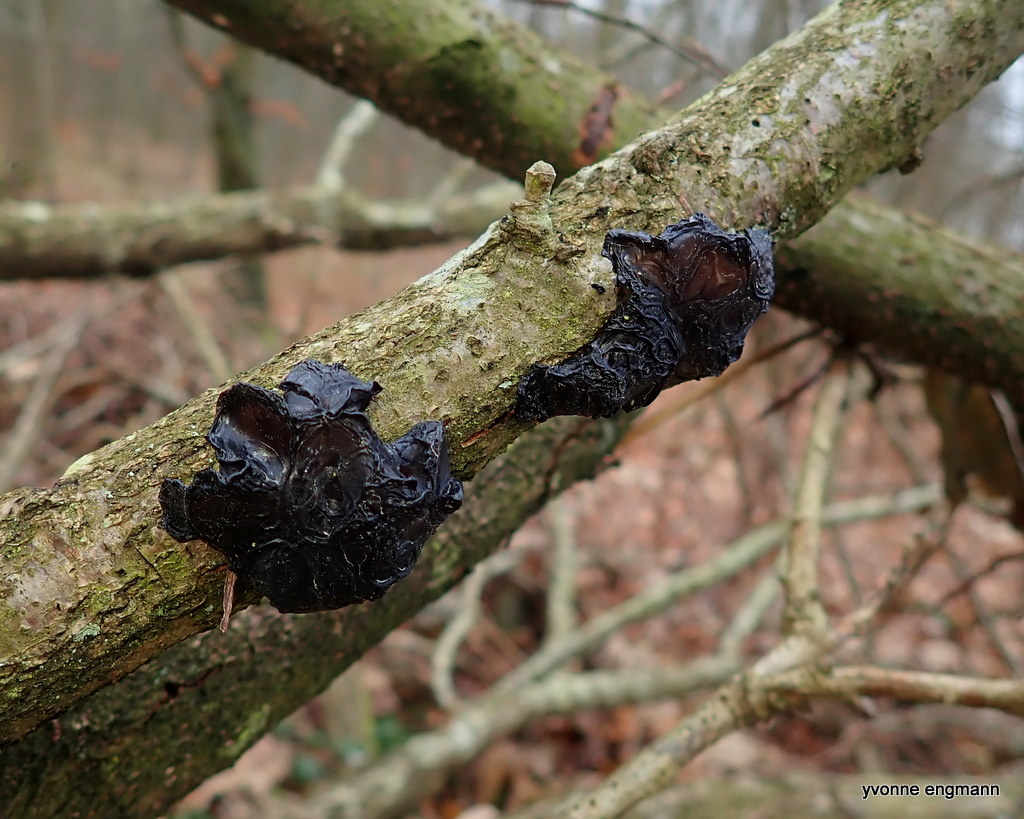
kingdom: Fungi
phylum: Basidiomycota
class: Agaricomycetes
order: Auriculariales
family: Auriculariaceae
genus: Exidia
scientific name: Exidia glandulosa
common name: ege-bævretop
